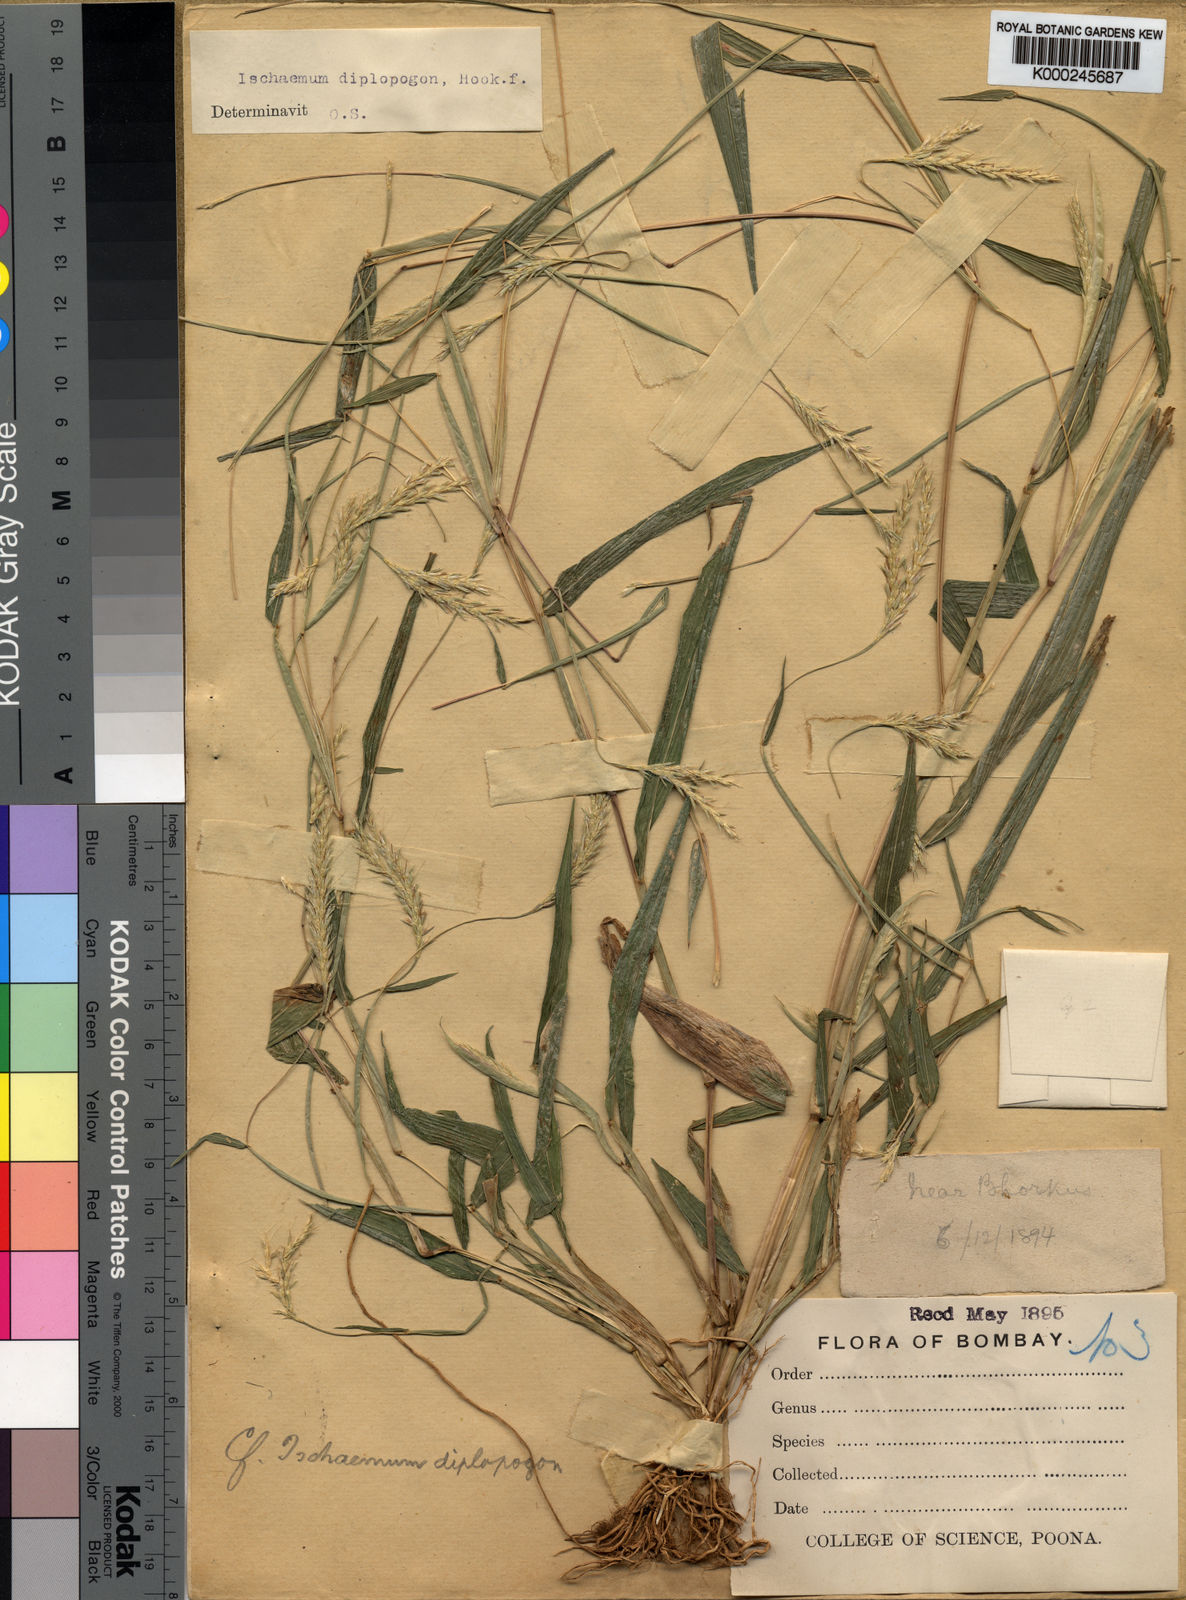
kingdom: Plantae
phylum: Tracheophyta
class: Liliopsida
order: Poales
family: Poaceae
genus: Ischaemum
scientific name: Ischaemum diplopogon
